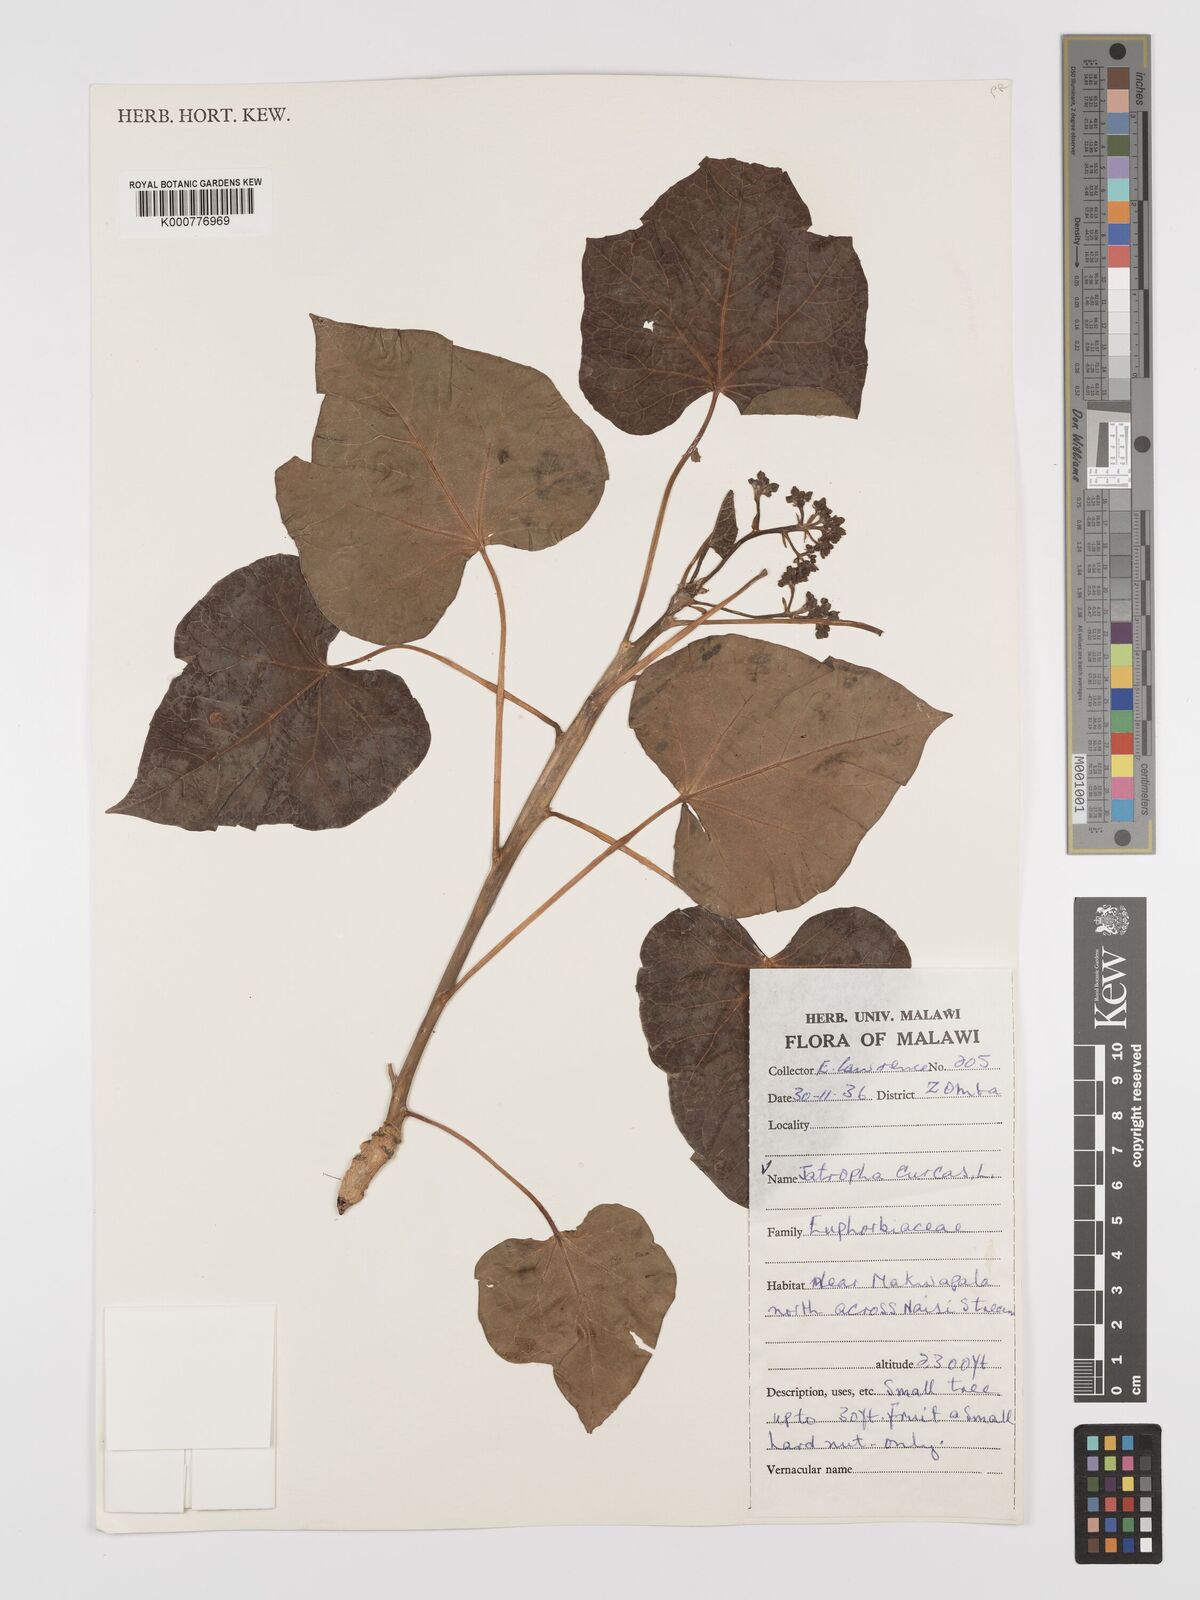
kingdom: Plantae
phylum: Tracheophyta
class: Magnoliopsida
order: Malpighiales
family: Euphorbiaceae
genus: Jatropha
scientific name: Jatropha curcas
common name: Barbados nut
